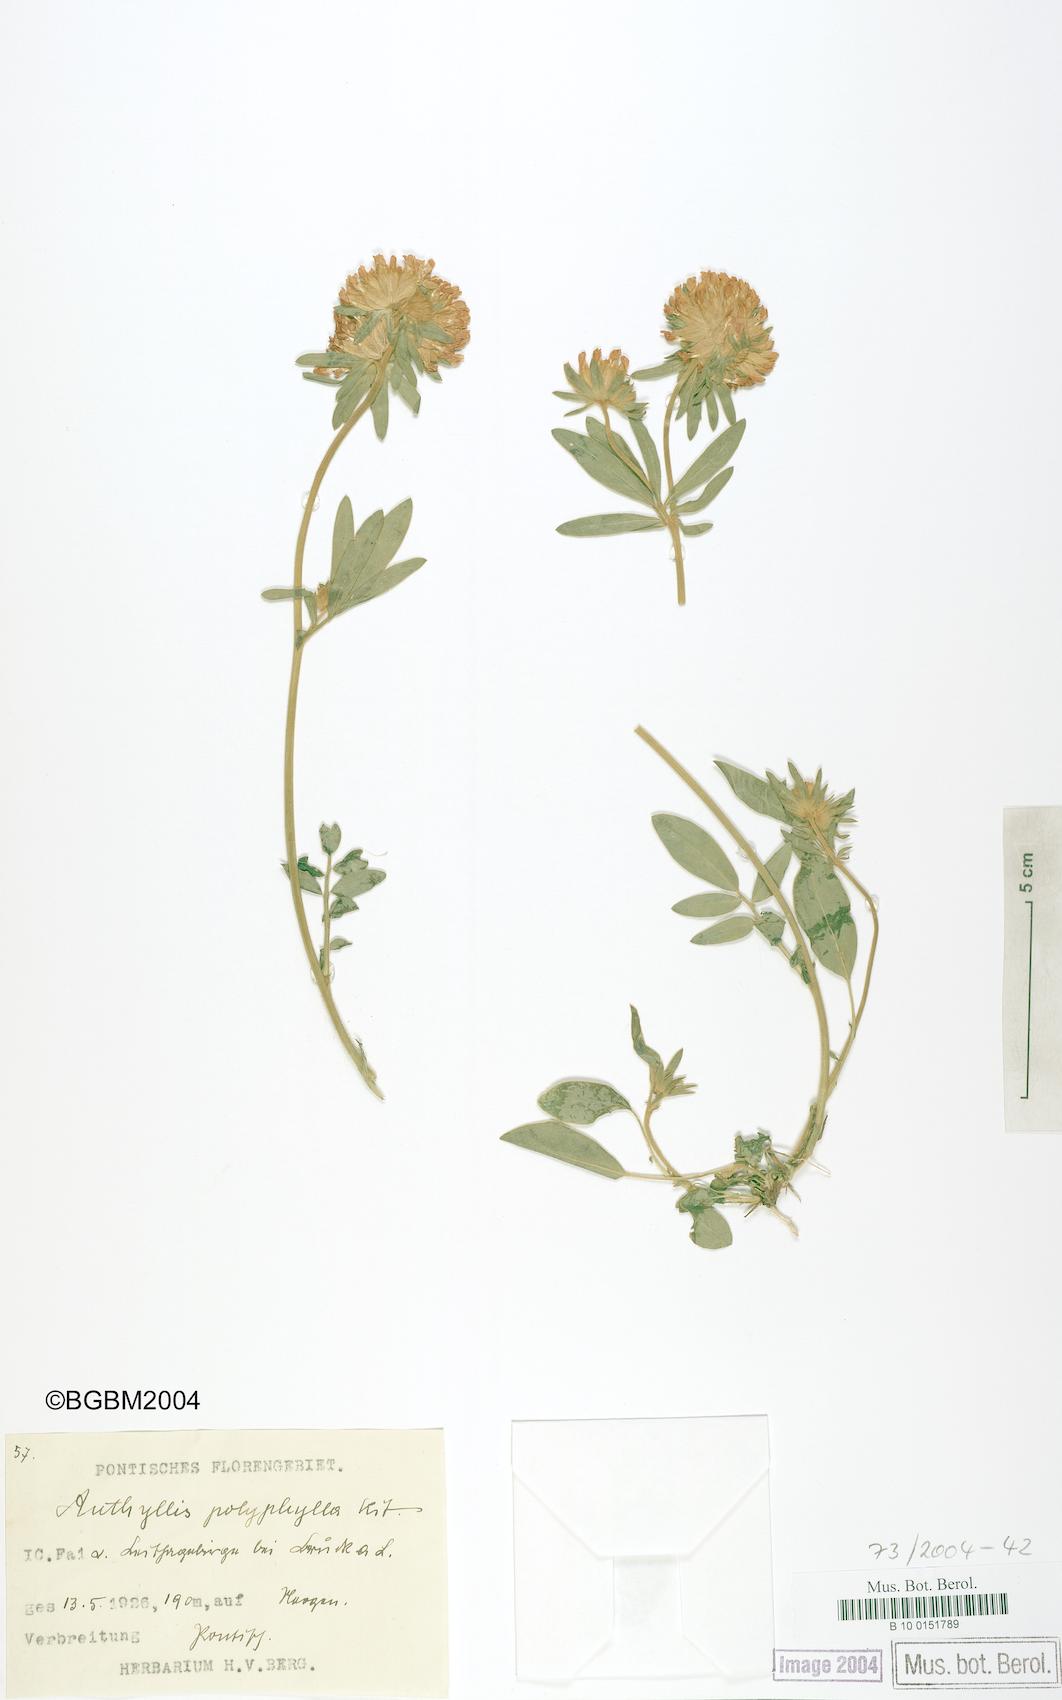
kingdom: Plantae
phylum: Tracheophyta
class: Magnoliopsida
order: Fabales
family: Fabaceae
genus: Anthyllis
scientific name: Anthyllis vulneraria
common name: Kidney vetch
